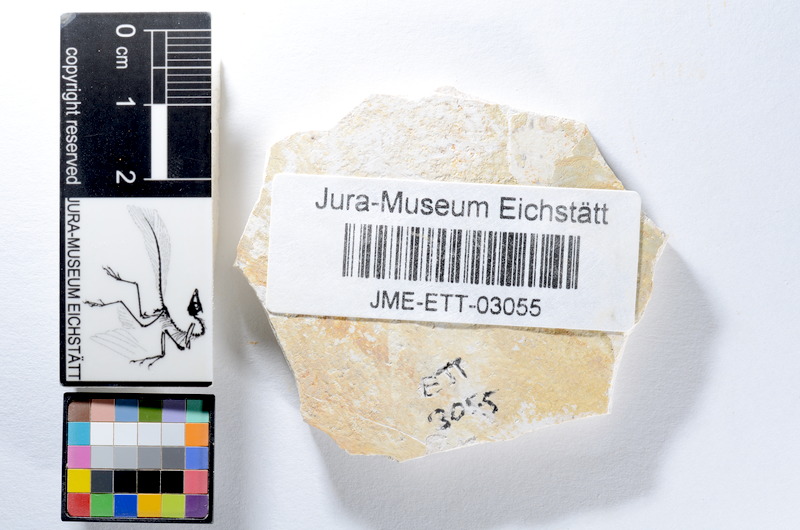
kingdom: Animalia
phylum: Chordata
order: Salmoniformes
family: Orthogonikleithridae
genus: Orthogonikleithrus
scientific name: Orthogonikleithrus hoelli
